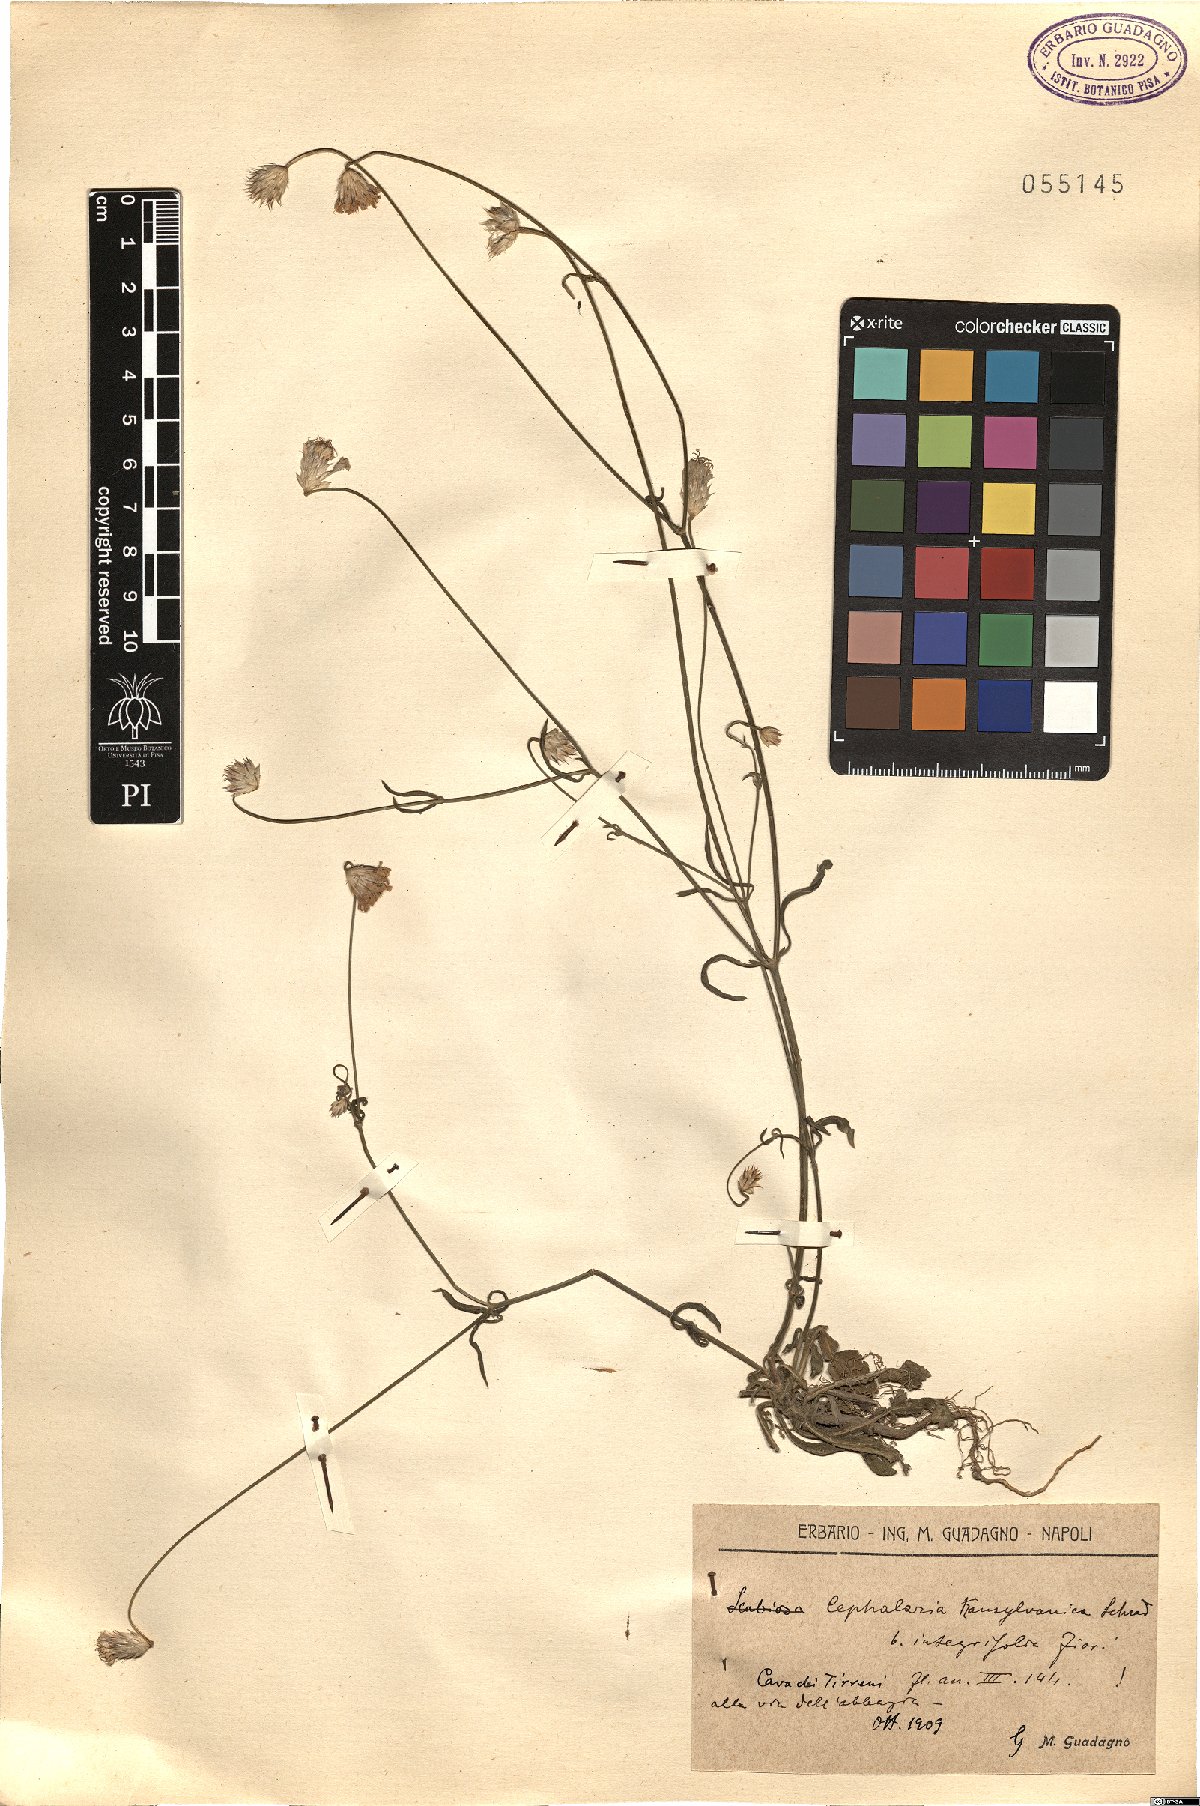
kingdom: Plantae
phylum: Tracheophyta
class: Magnoliopsida
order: Dipsacales
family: Caprifoliaceae
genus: Cephalaria
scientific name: Cephalaria transsylvanica
